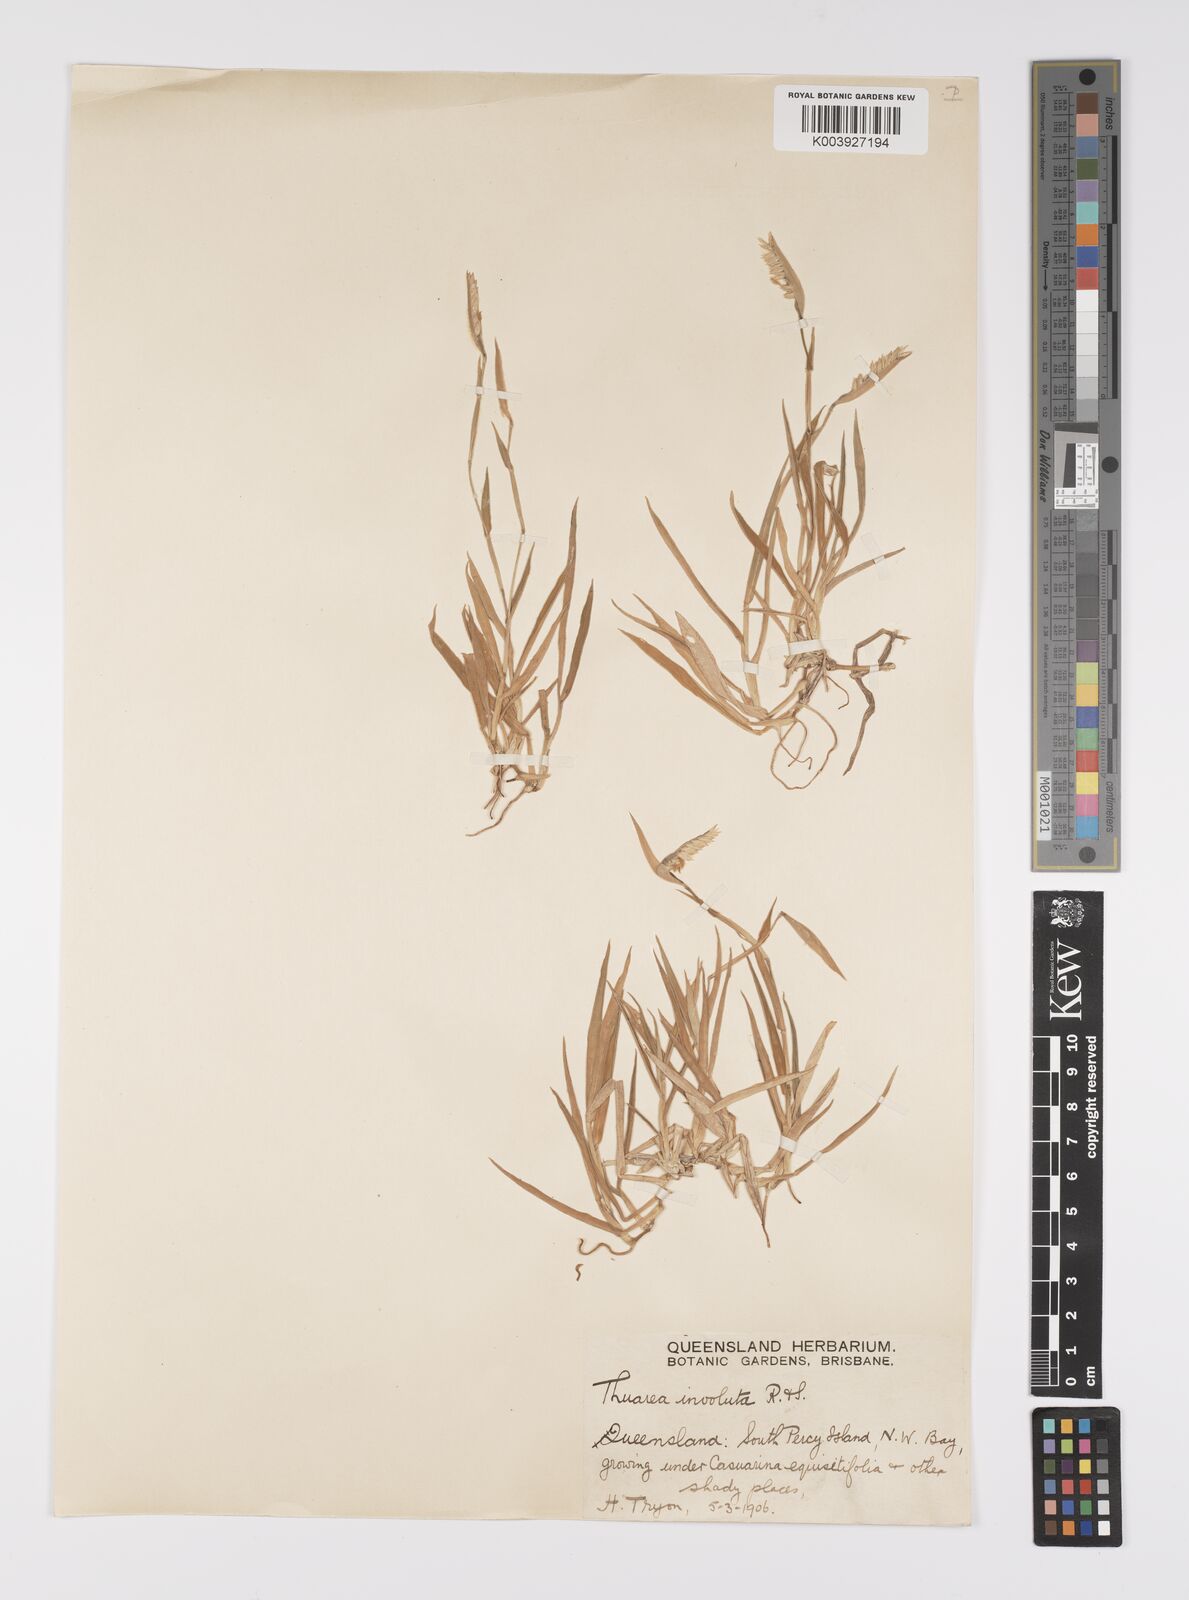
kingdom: Plantae
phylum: Tracheophyta
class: Liliopsida
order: Poales
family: Poaceae
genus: Thuarea
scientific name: Thuarea involuta
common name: Tropical beach grass
